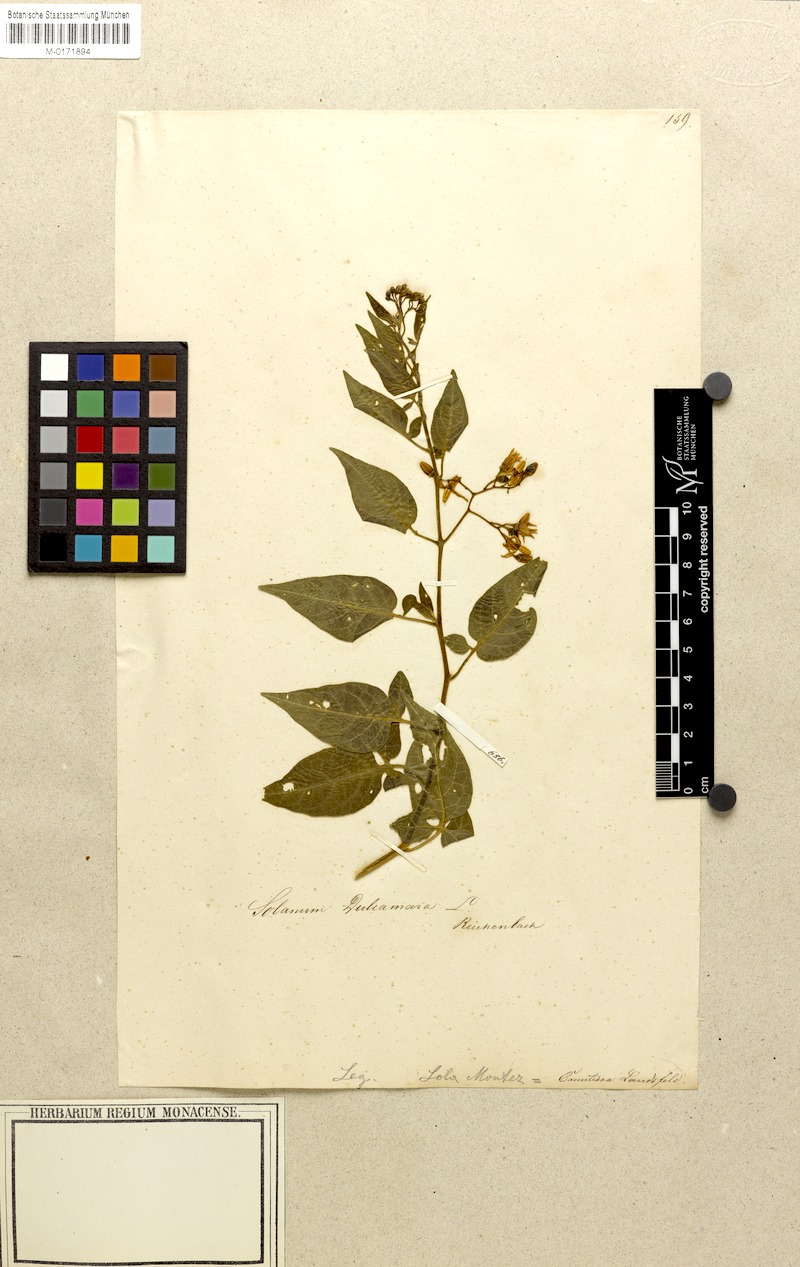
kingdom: Plantae
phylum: Tracheophyta
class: Magnoliopsida
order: Solanales
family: Solanaceae
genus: Solanum
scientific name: Solanum dulcamara
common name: Climbing nightshade
